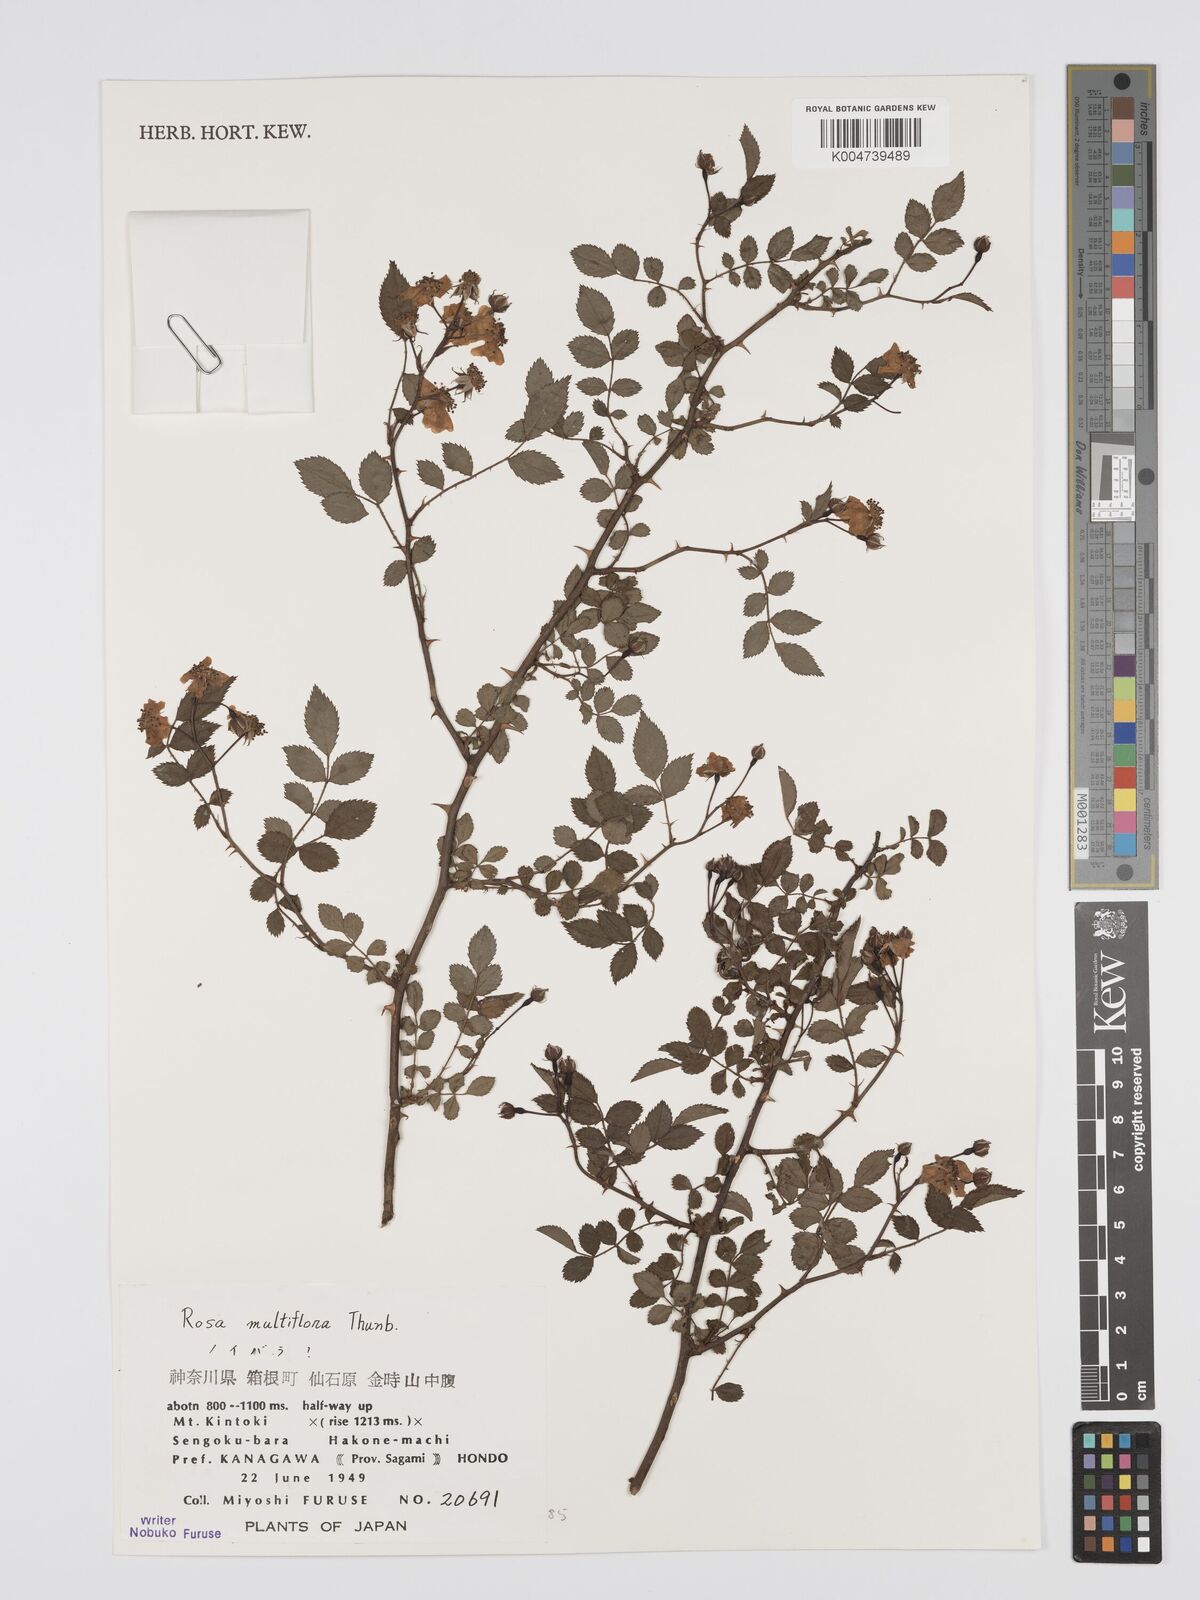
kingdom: Plantae
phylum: Tracheophyta
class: Magnoliopsida
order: Rosales
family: Rosaceae
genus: Rosa
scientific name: Rosa
